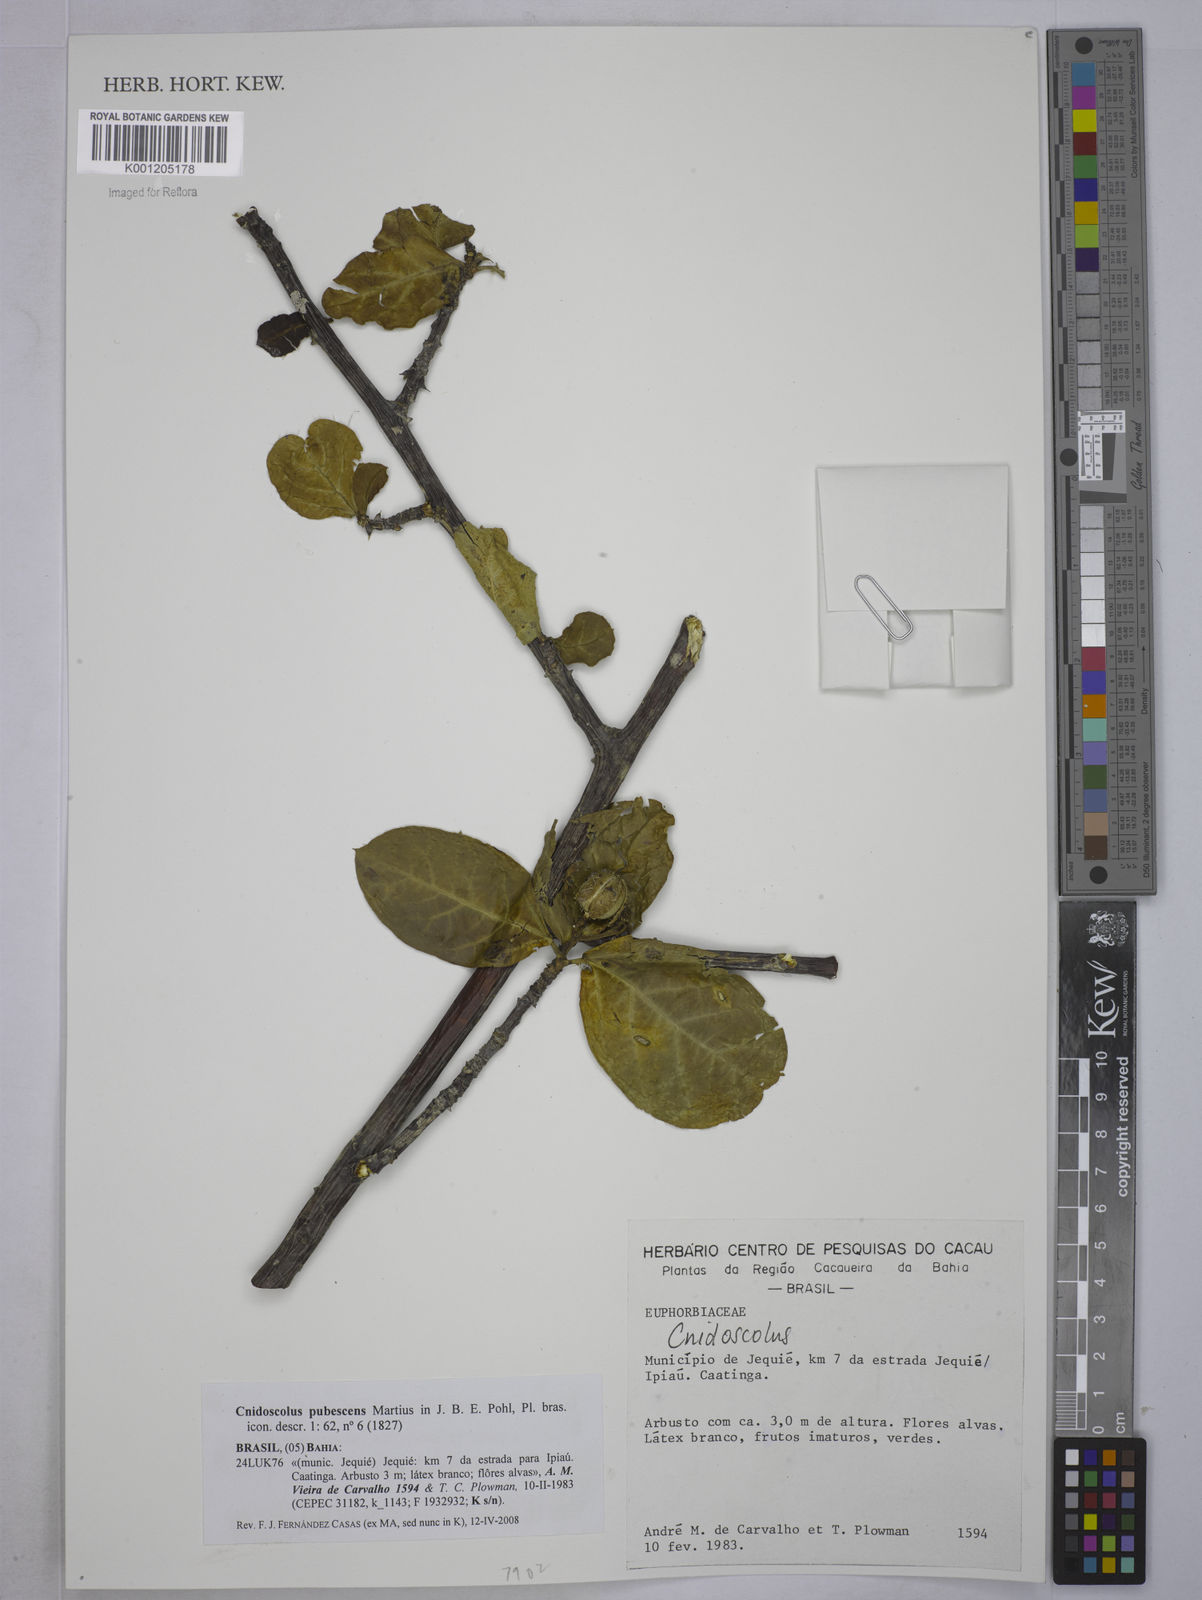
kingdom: Plantae
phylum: Tracheophyta
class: Magnoliopsida
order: Malpighiales
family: Euphorbiaceae
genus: Cnidoscolus
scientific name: Cnidoscolus pubescens
